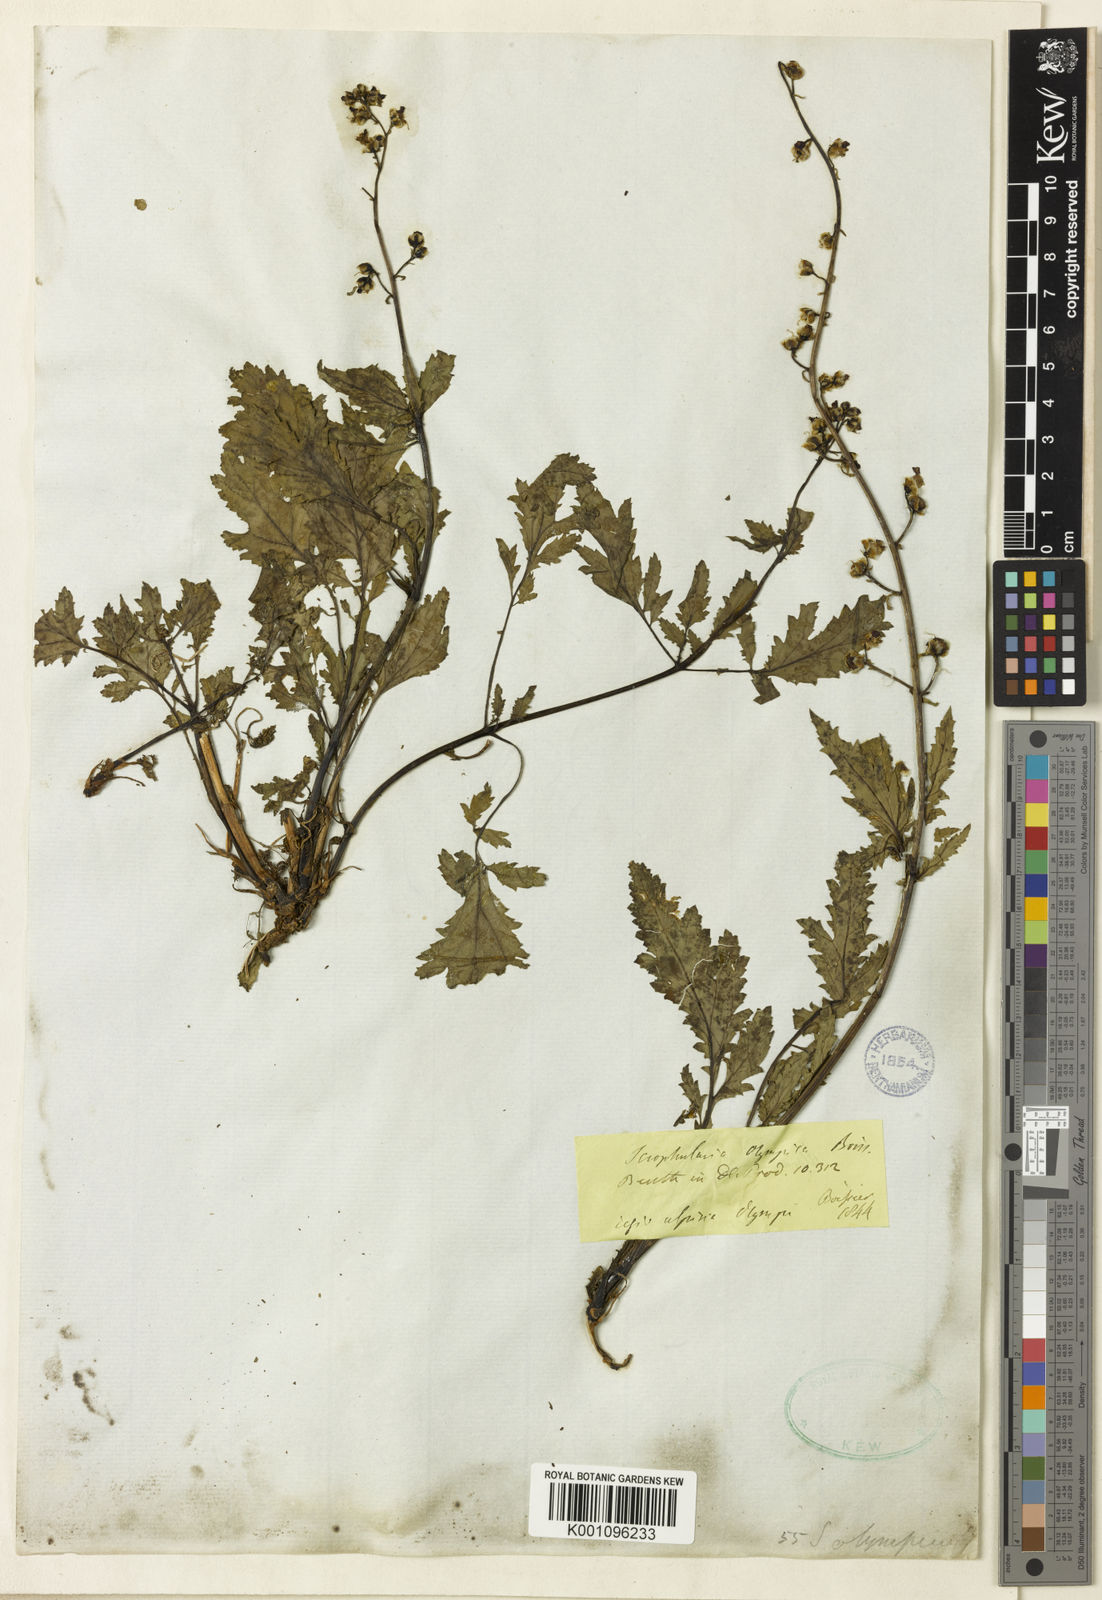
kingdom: Plantae
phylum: Tracheophyta
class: Magnoliopsida
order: Lamiales
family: Scrophulariaceae
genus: Scrophularia
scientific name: Scrophularia olympica
